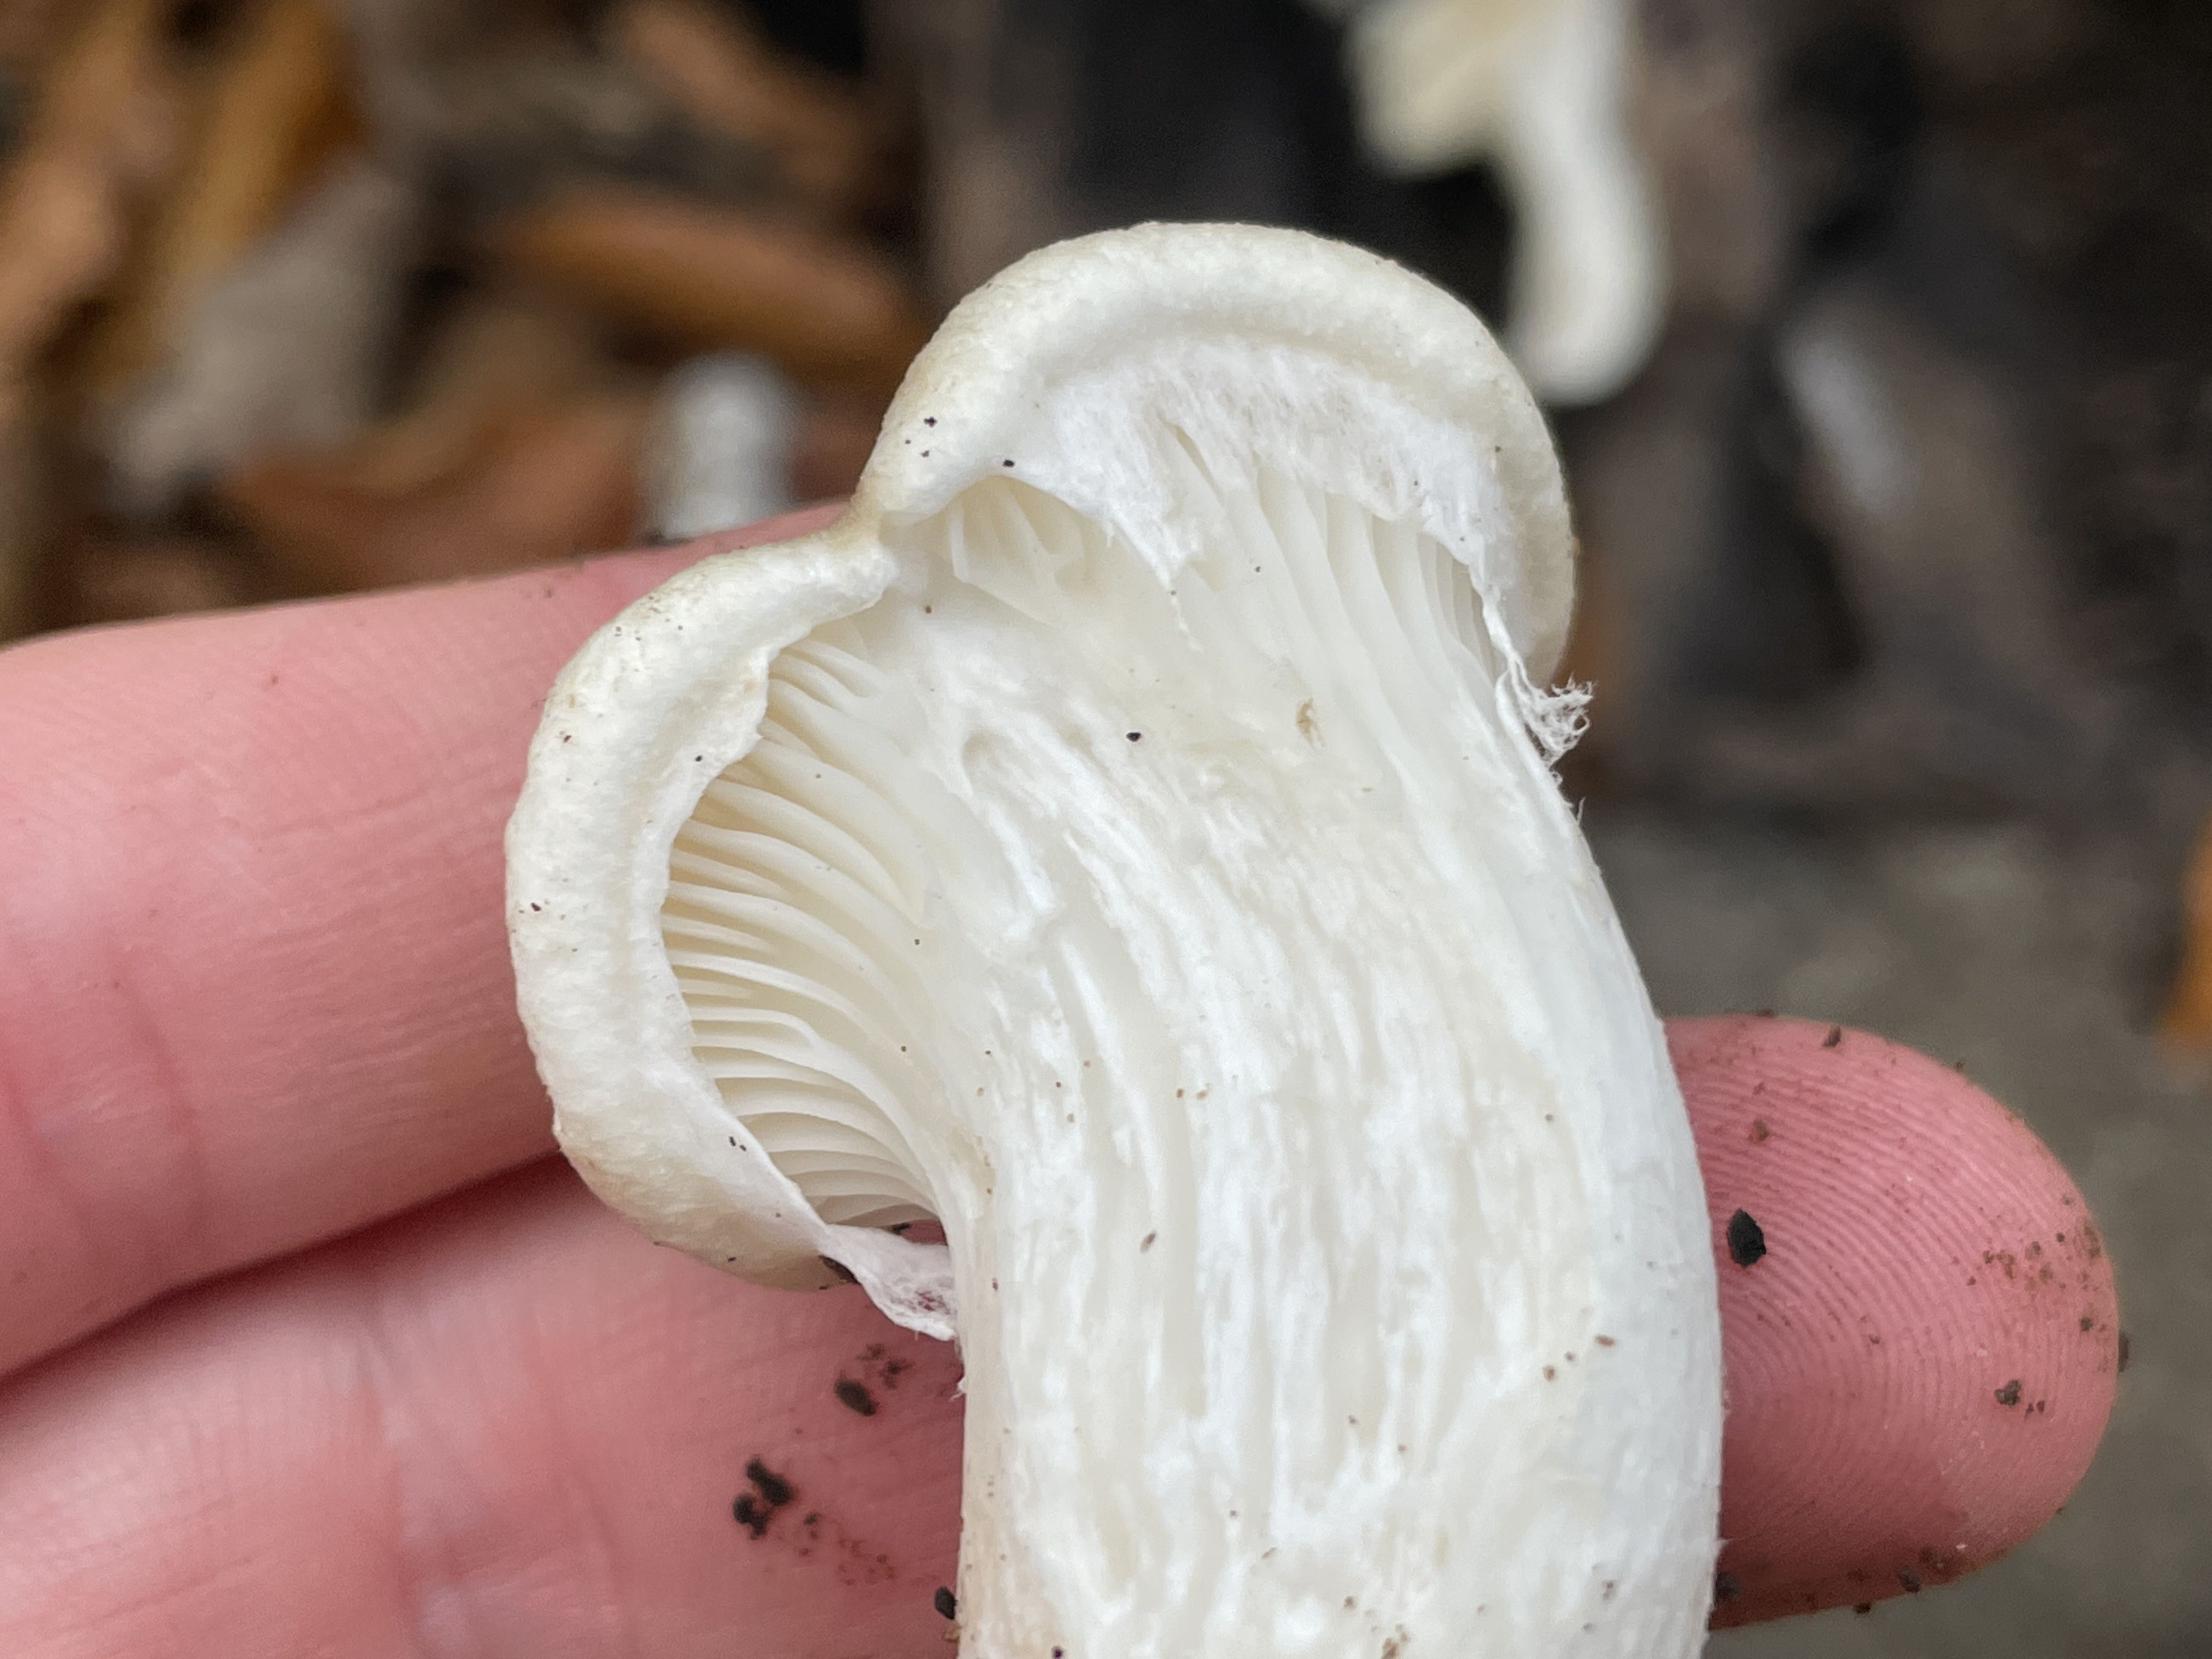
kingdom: Fungi
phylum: Basidiomycota
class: Agaricomycetes
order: Agaricales
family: Pleurotaceae
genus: Pleurotus
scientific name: Pleurotus dryinus
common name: korkagtig østershat
